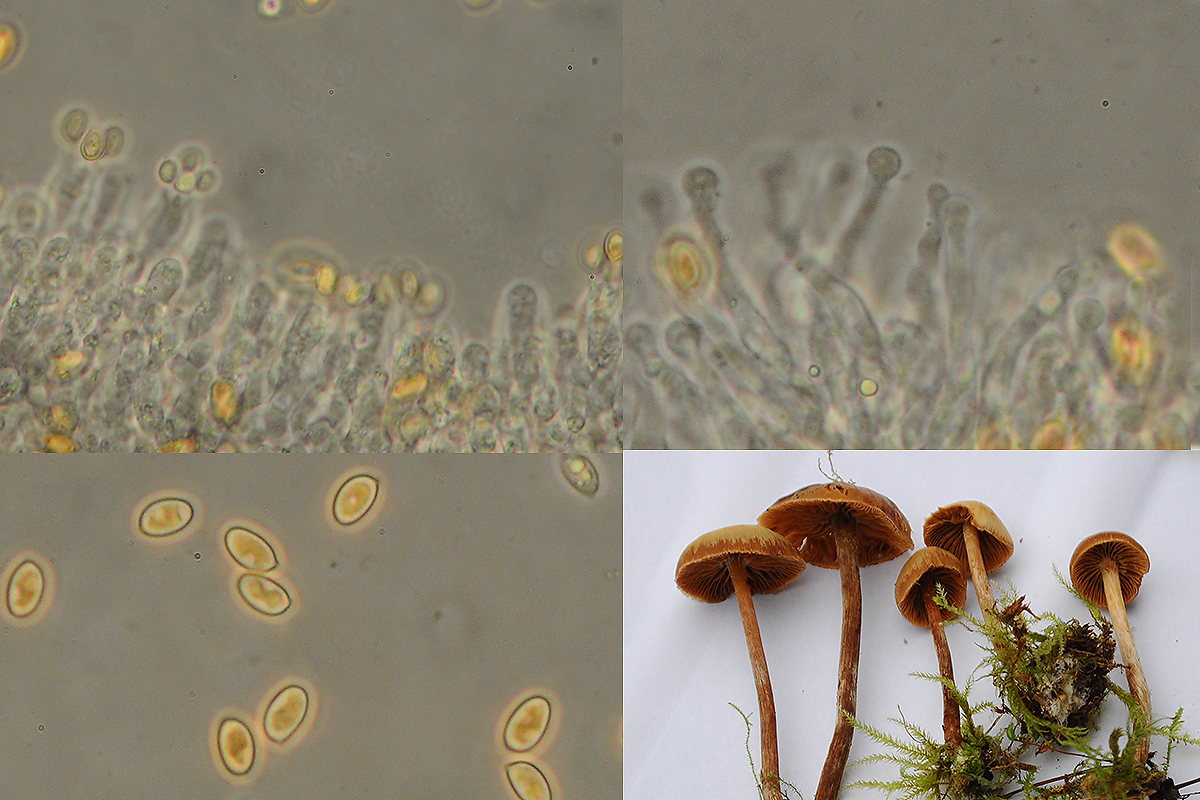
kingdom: Fungi
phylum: Basidiomycota
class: Agaricomycetes
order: Agaricales
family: Hymenogastraceae
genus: Galerina
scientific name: Galerina sideroides
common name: træflis-hjelmhat
